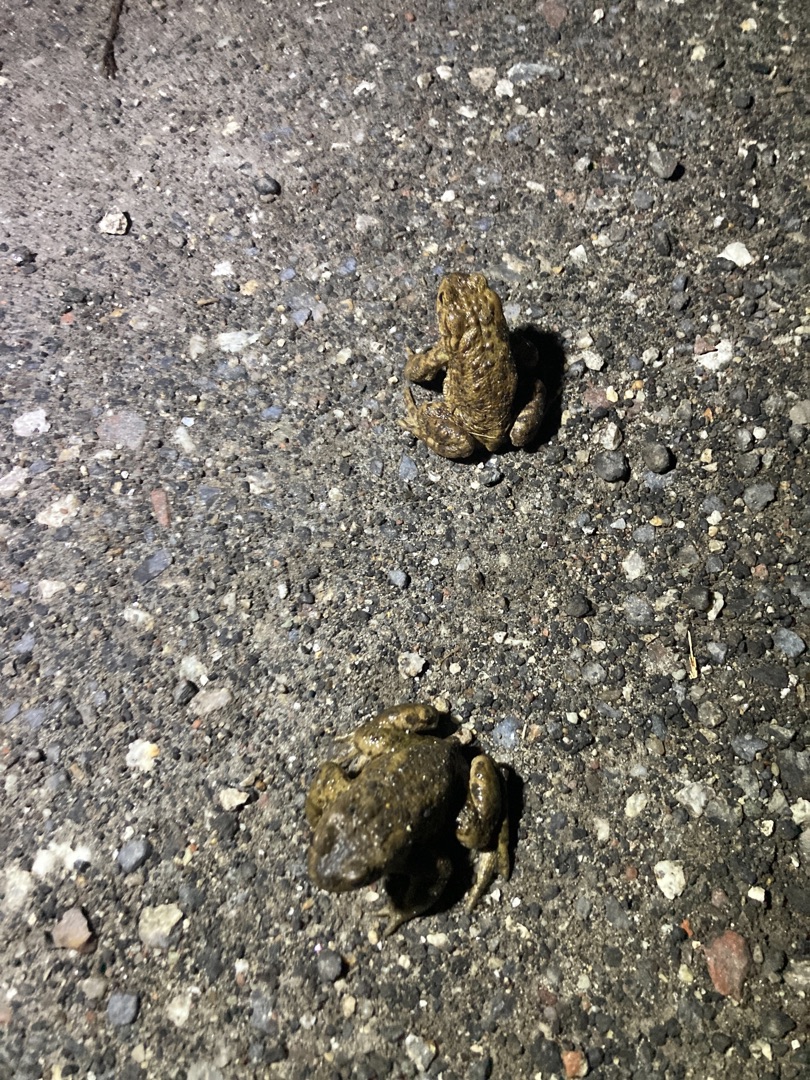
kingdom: Animalia
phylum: Chordata
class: Amphibia
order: Anura
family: Bufonidae
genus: Bufo
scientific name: Bufo bufo
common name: Skrubtudse
